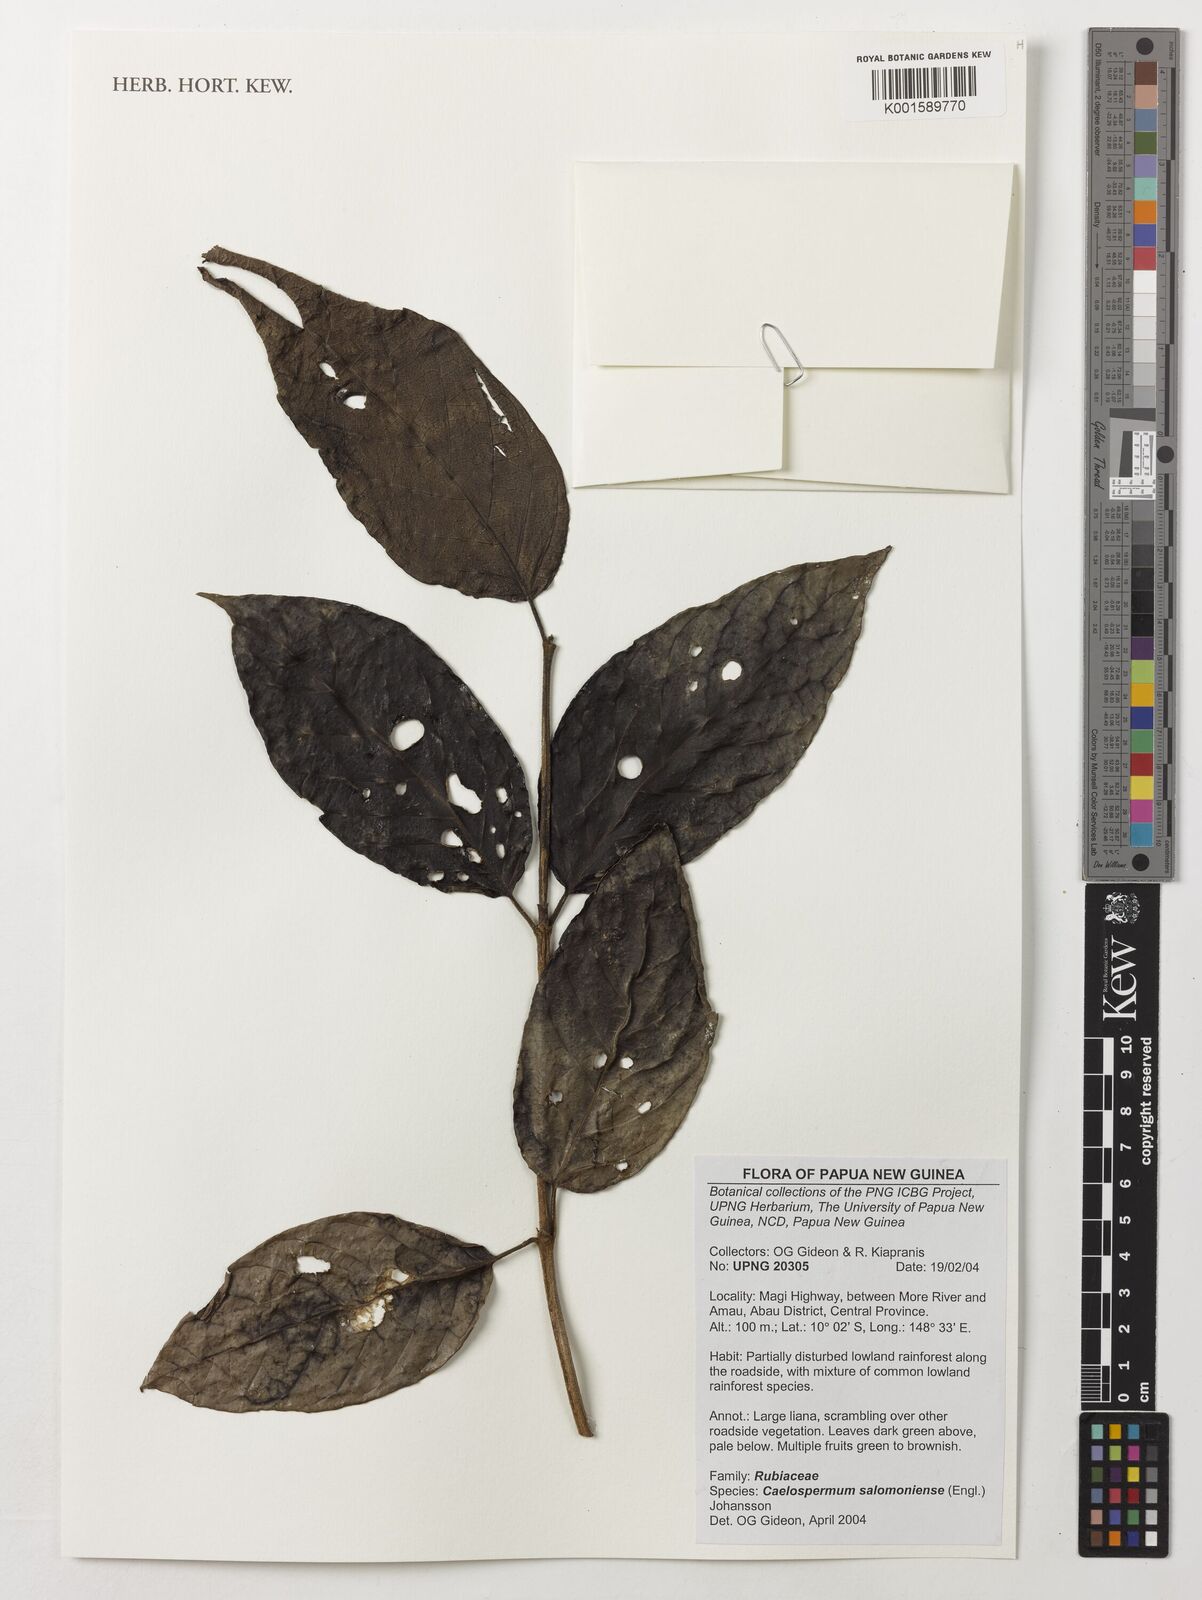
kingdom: Plantae
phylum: Tracheophyta
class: Magnoliopsida
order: Gentianales
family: Rubiaceae
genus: Coelospermum
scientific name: Coelospermum salomoniense
